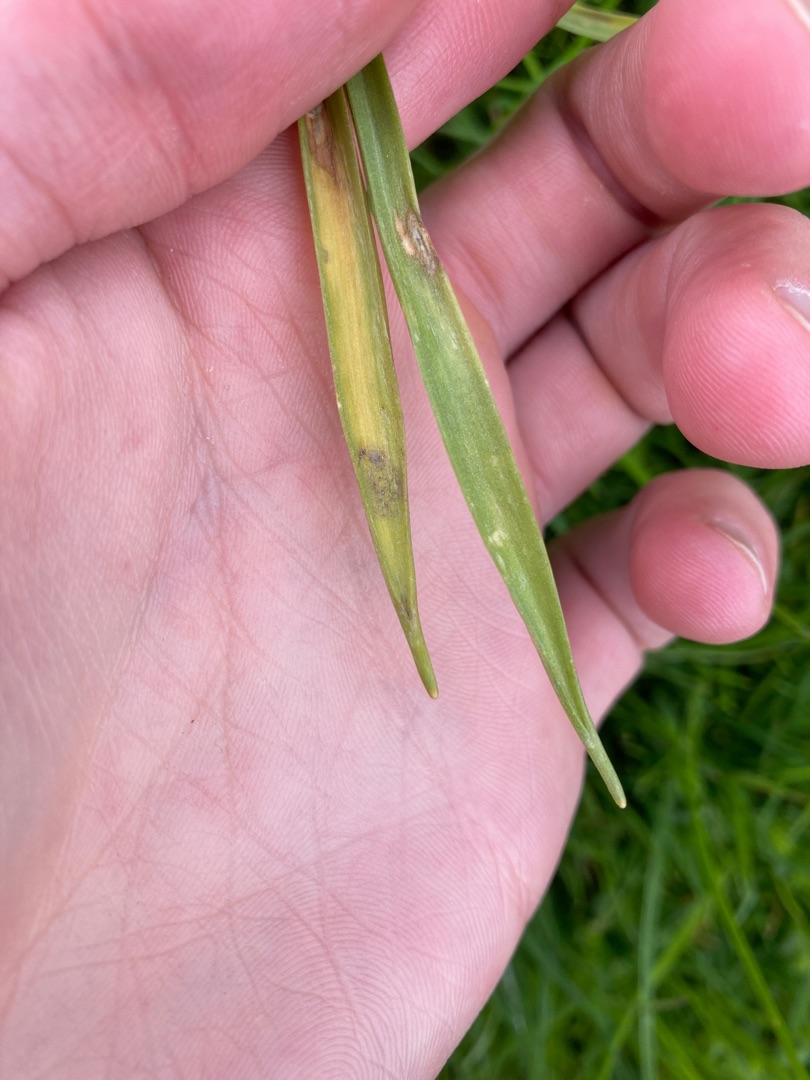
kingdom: Plantae
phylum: Tracheophyta
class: Liliopsida
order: Liliales
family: Liliaceae
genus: Gagea
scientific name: Gagea lutea
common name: Almindelig guldstjerne
